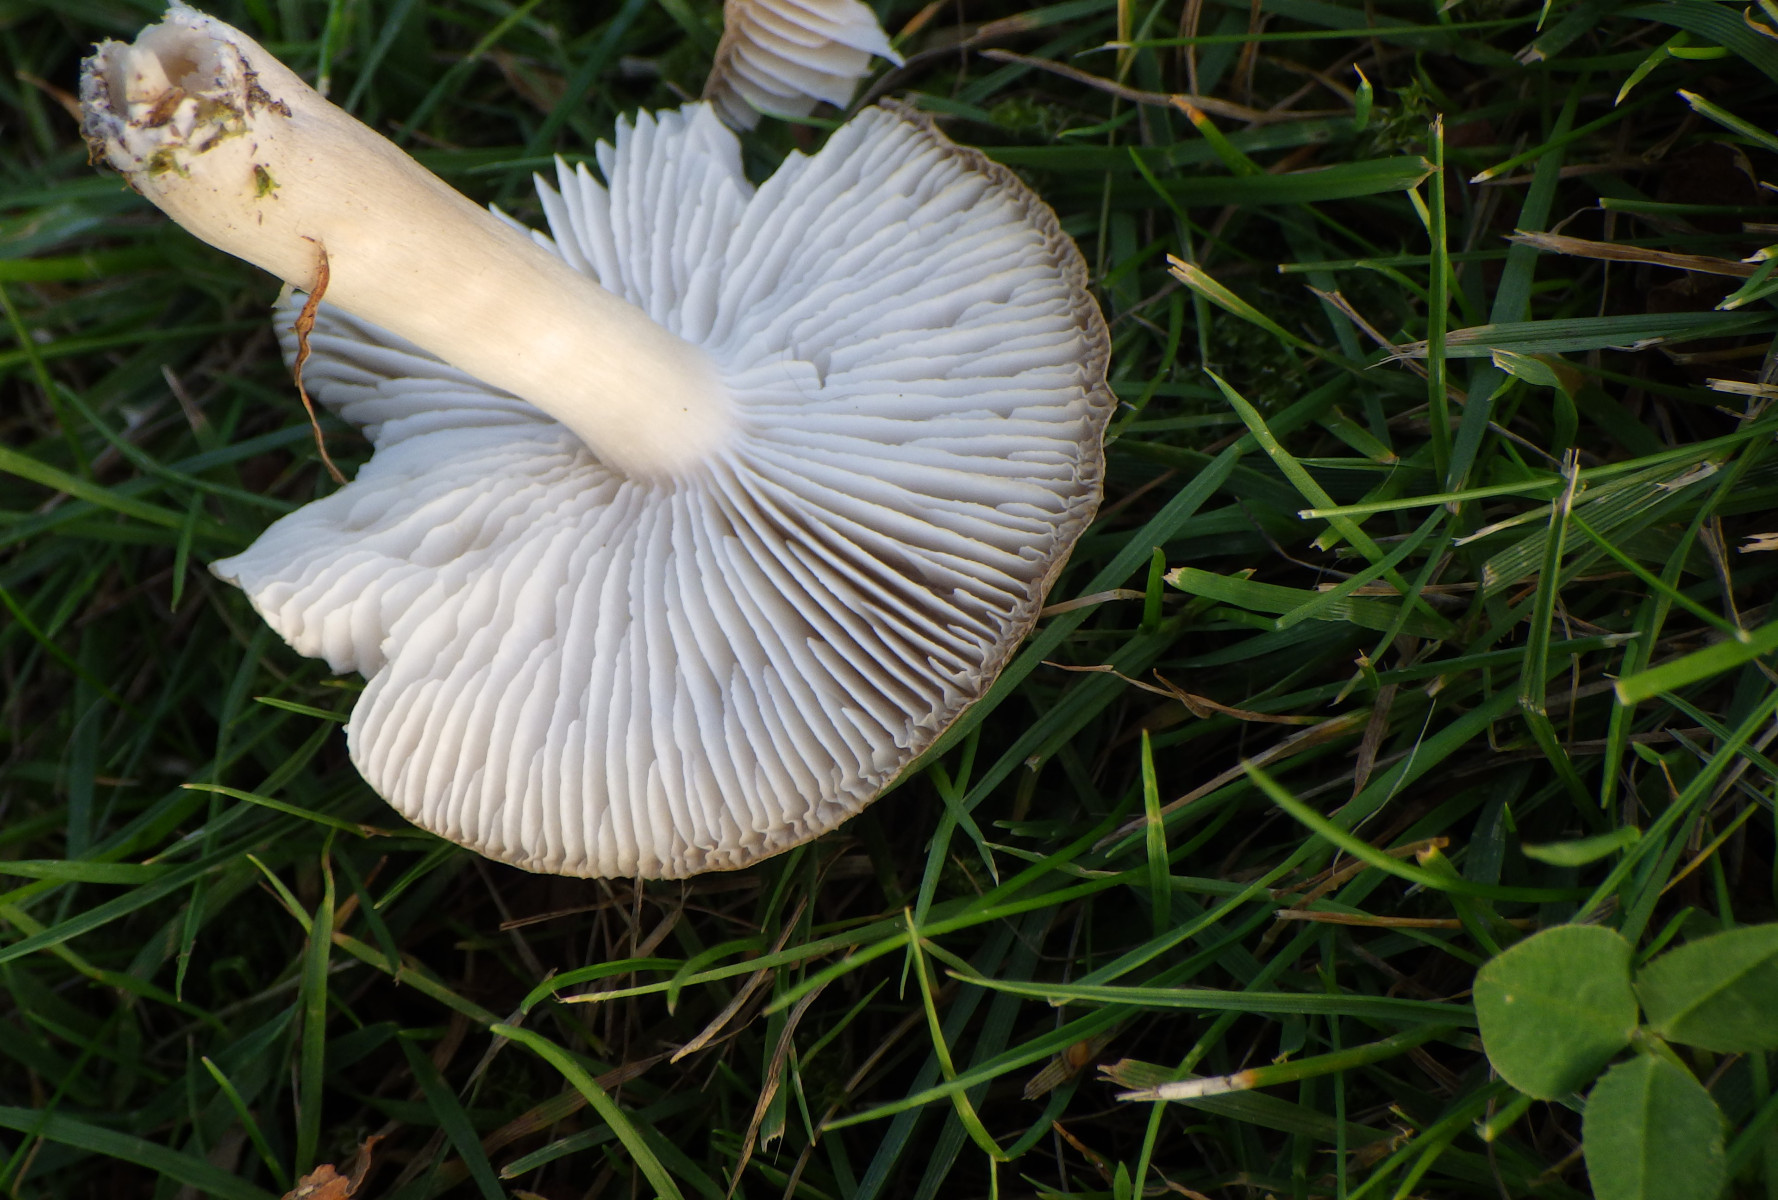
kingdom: Fungi
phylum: Basidiomycota
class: Agaricomycetes
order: Agaricales
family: Tricholomataceae
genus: Tricholoma
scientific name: Tricholoma
